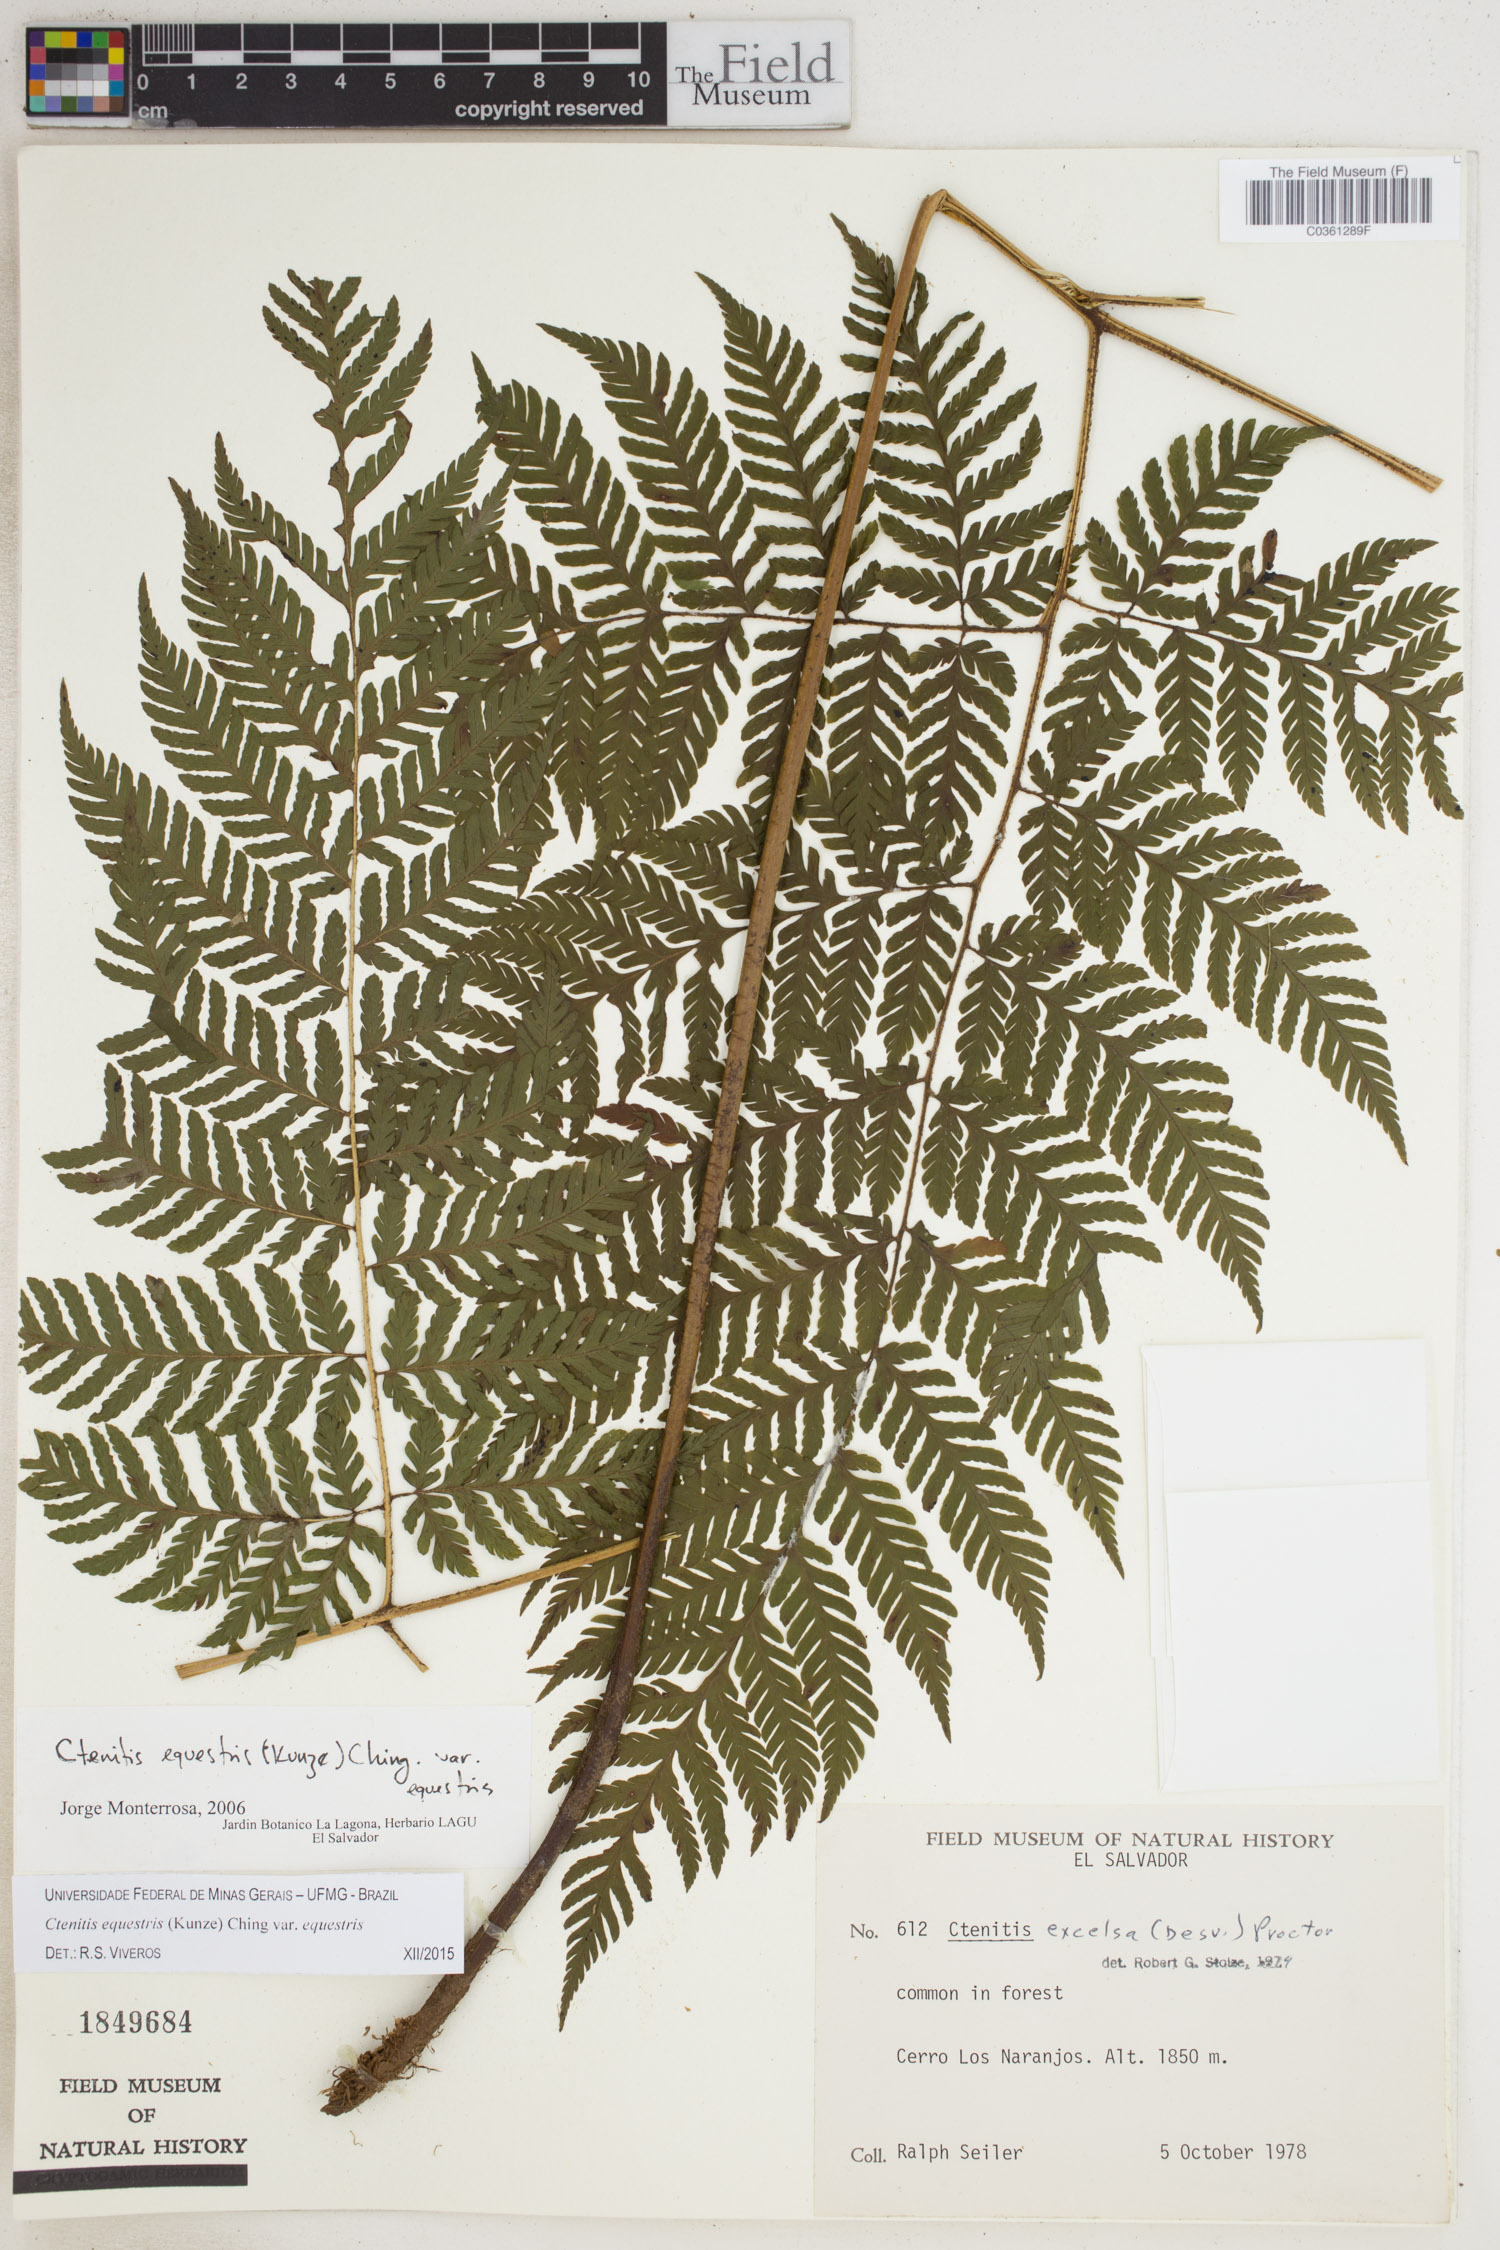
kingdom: Plantae
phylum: Tracheophyta
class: Polypodiopsida
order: Polypodiales
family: Dryopteridaceae
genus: Ctenitis
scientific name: Ctenitis equestris
